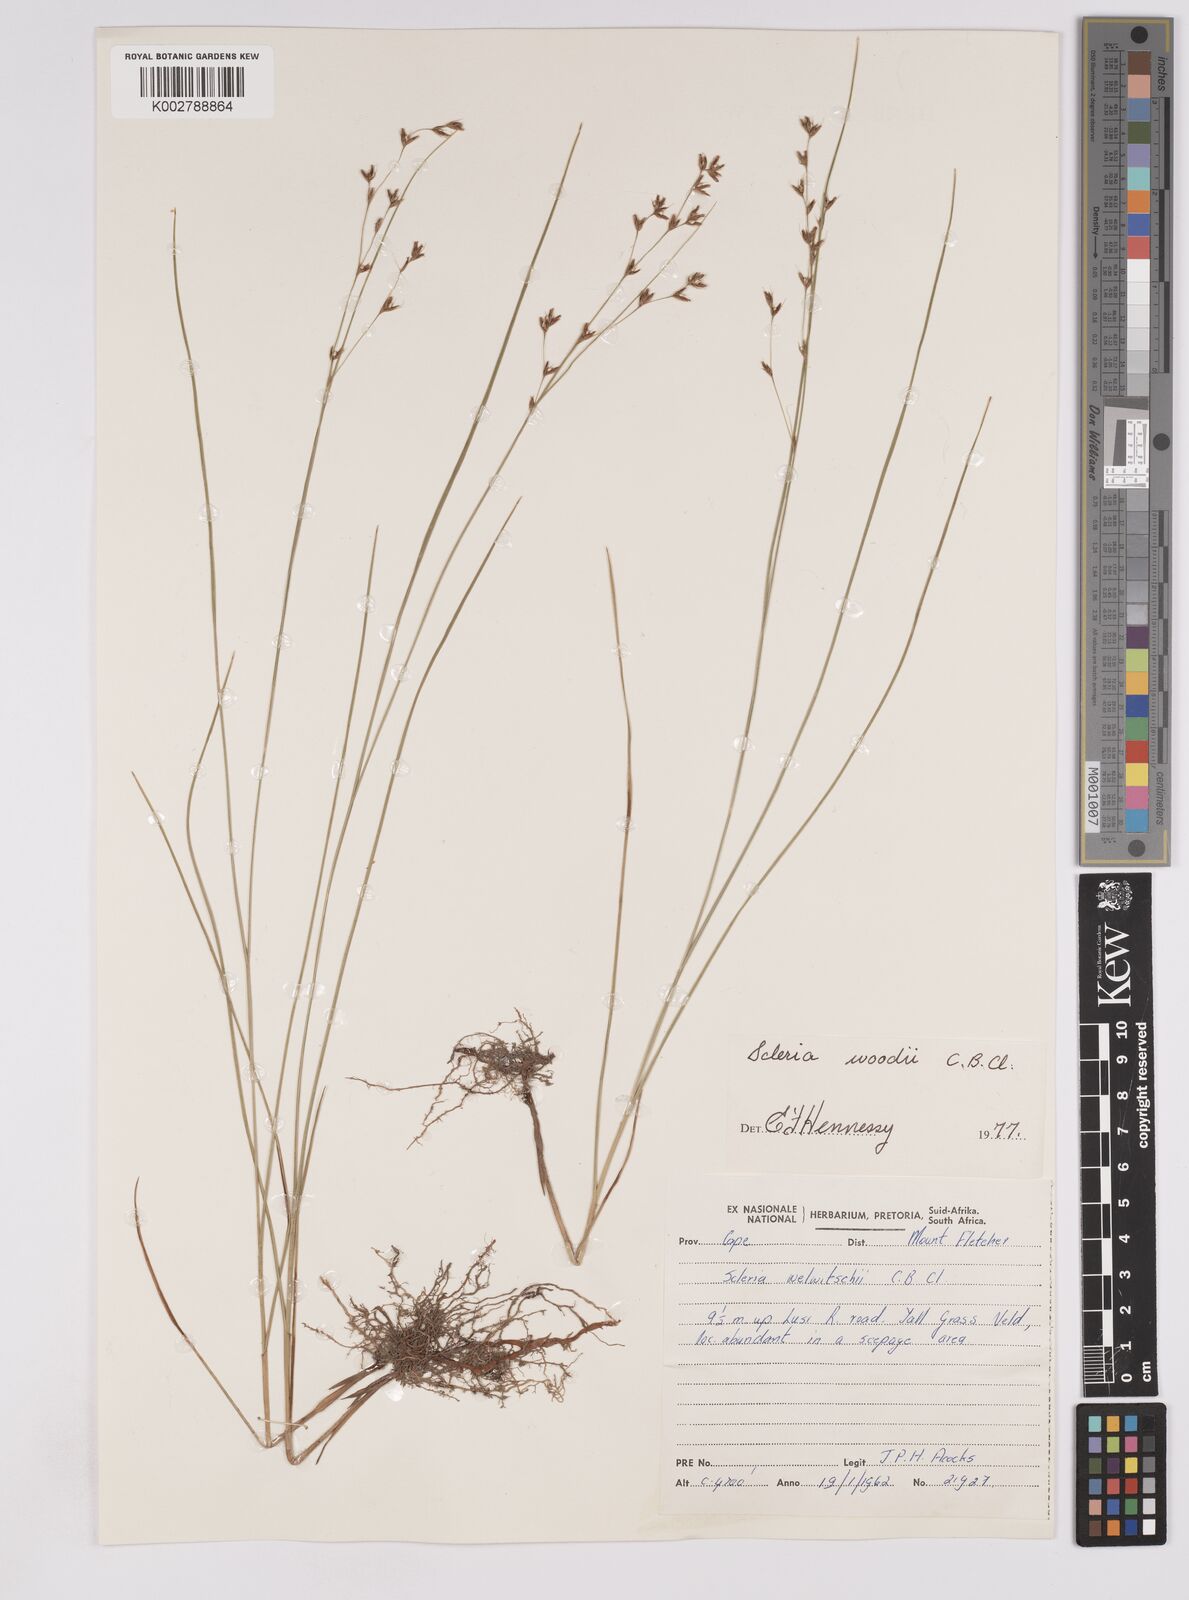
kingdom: Plantae
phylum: Tracheophyta
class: Liliopsida
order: Poales
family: Cyperaceae
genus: Scleria
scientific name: Scleria woodii
